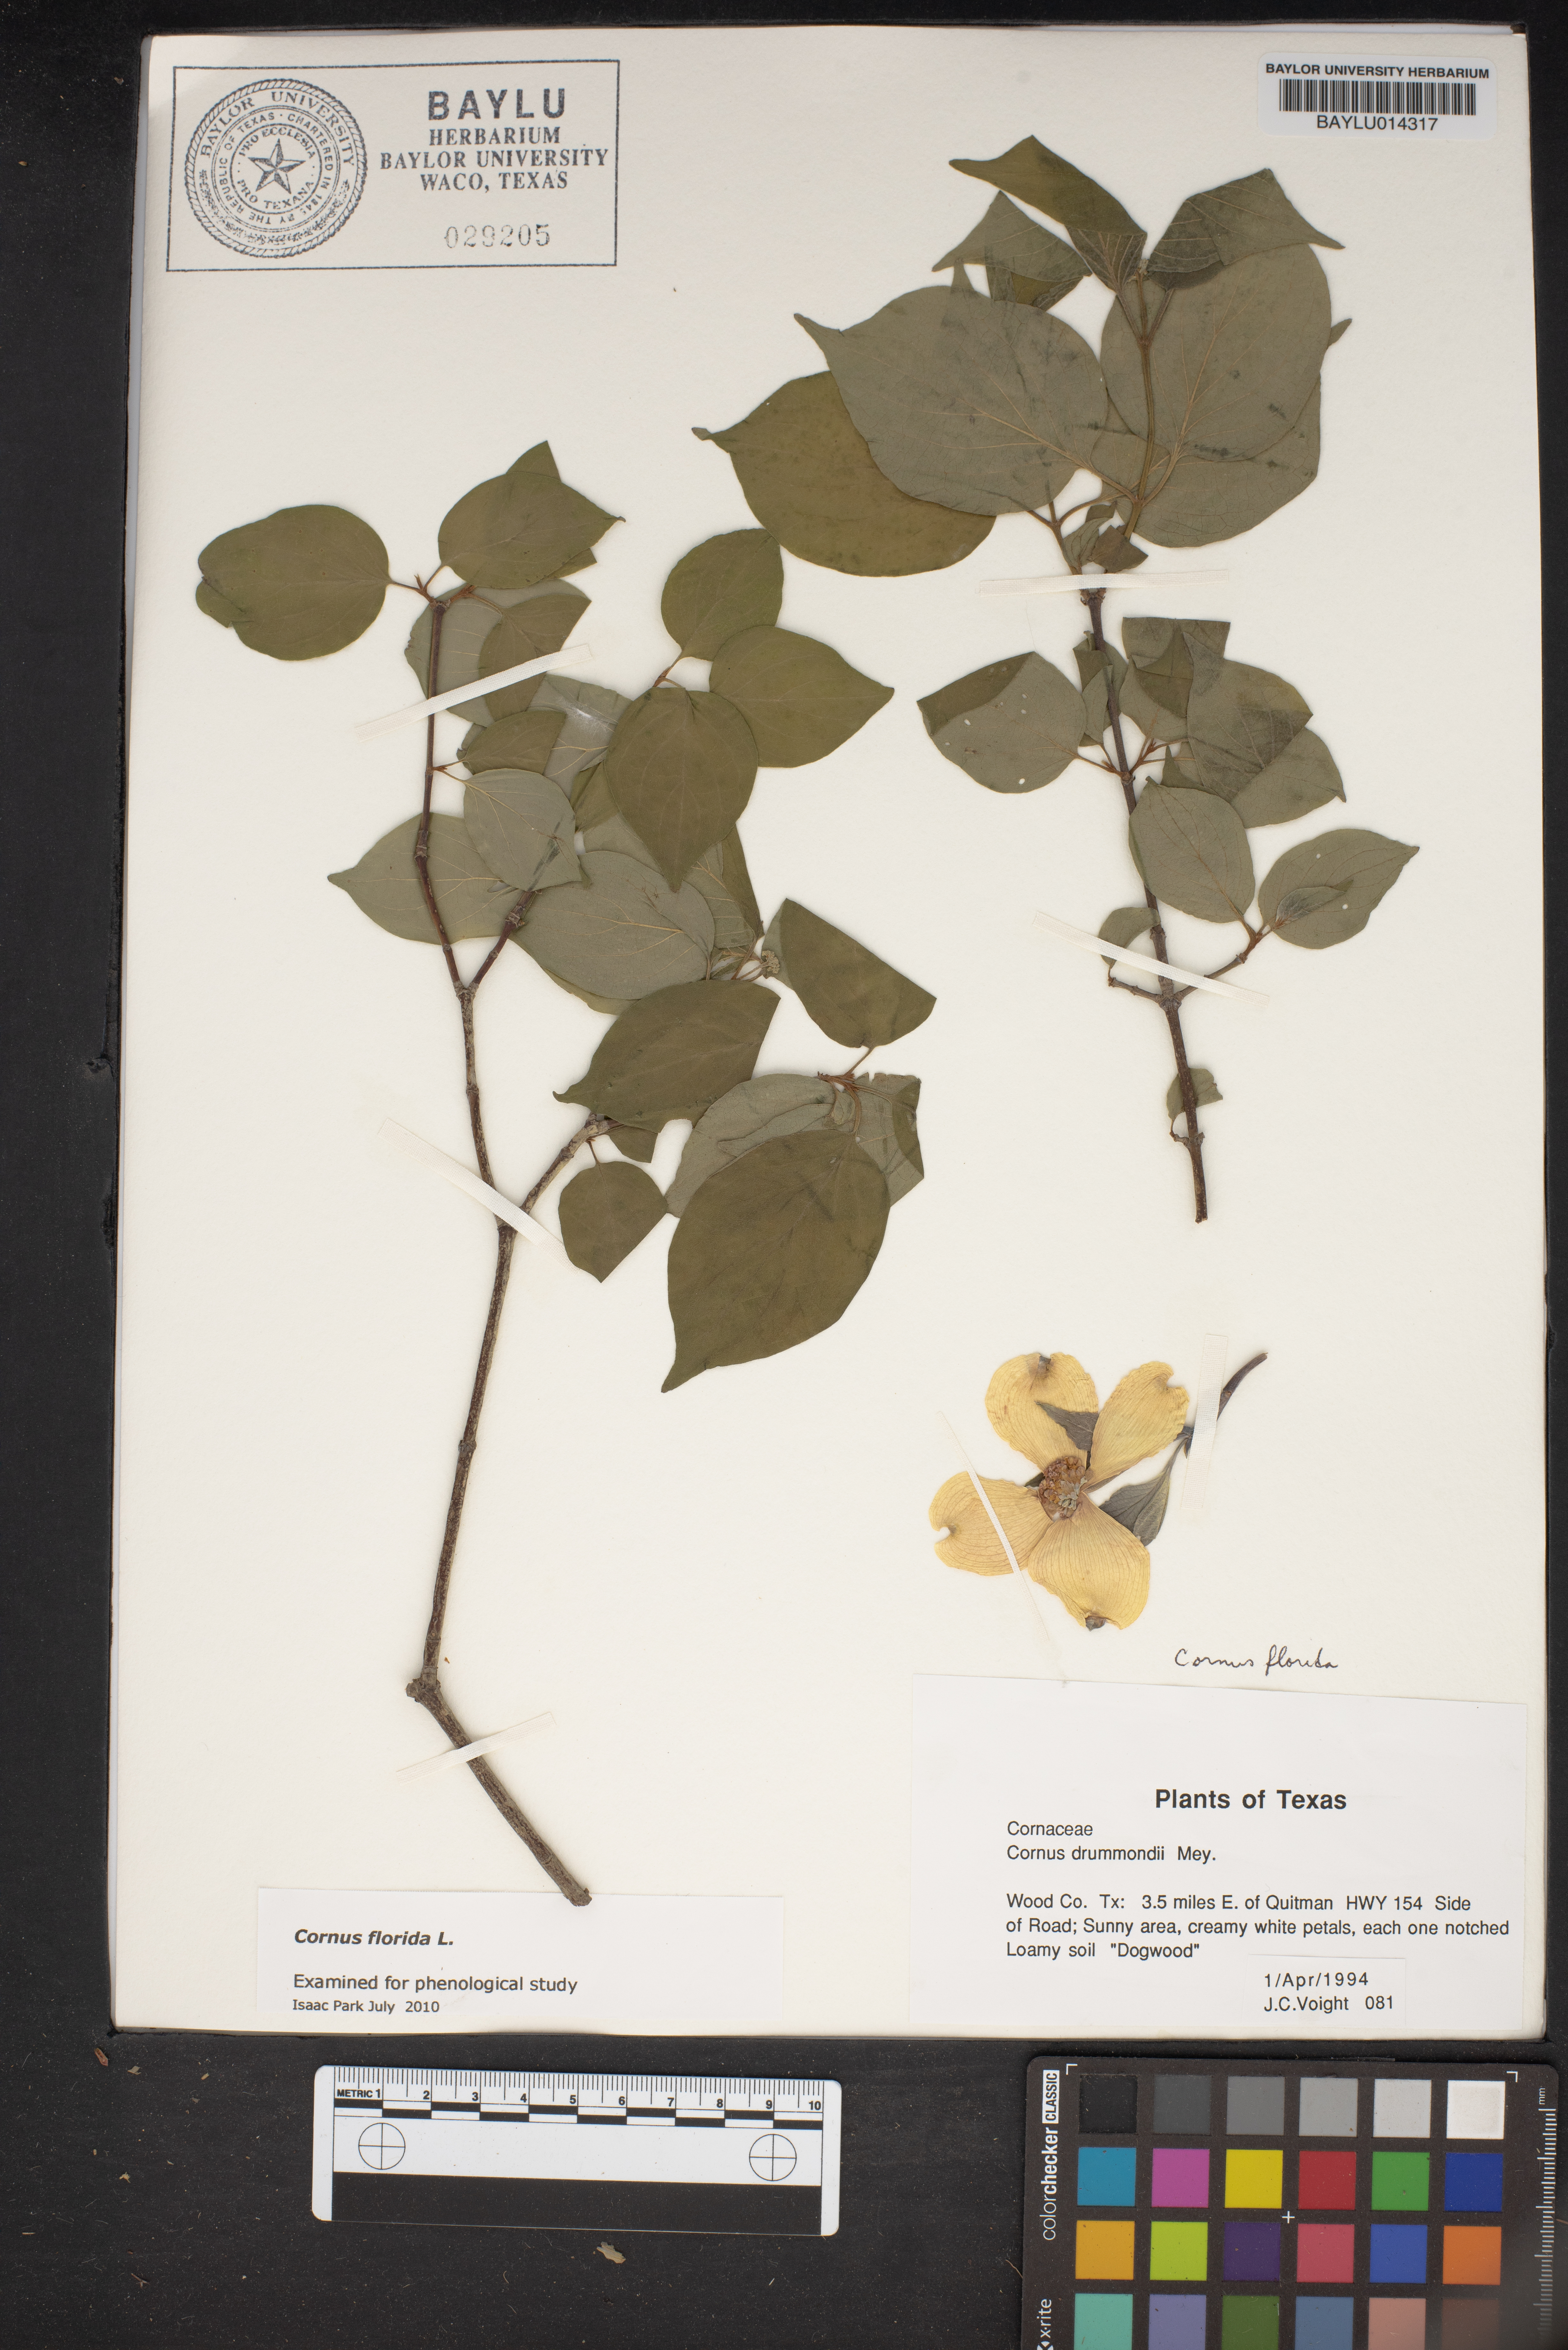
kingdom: Plantae
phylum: Tracheophyta
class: Magnoliopsida
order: Cornales
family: Cornaceae
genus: Cornus
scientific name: Cornus florida
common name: Flowering dogwood
